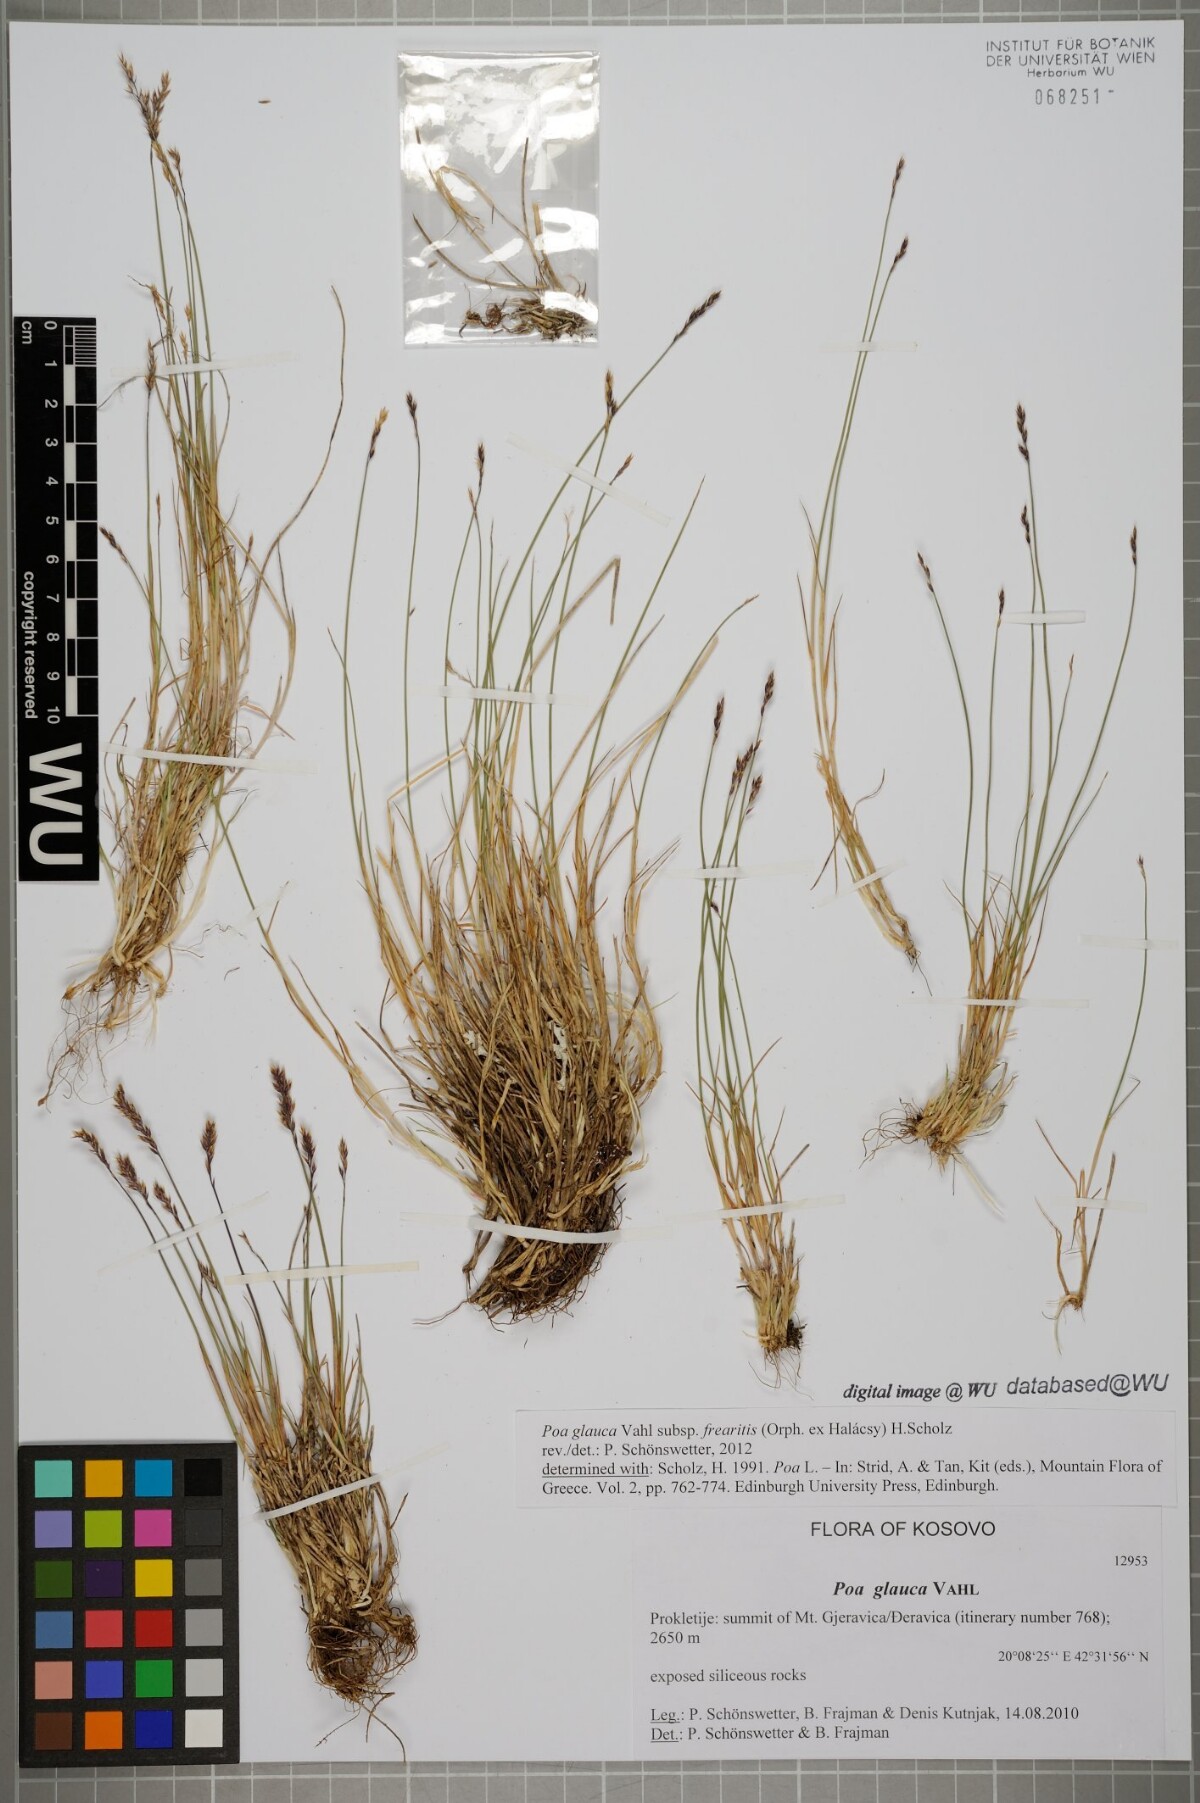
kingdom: Plantae
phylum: Tracheophyta
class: Liliopsida
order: Poales
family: Poaceae
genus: Poa
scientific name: Poa glauca
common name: Glaucous bluegrass
